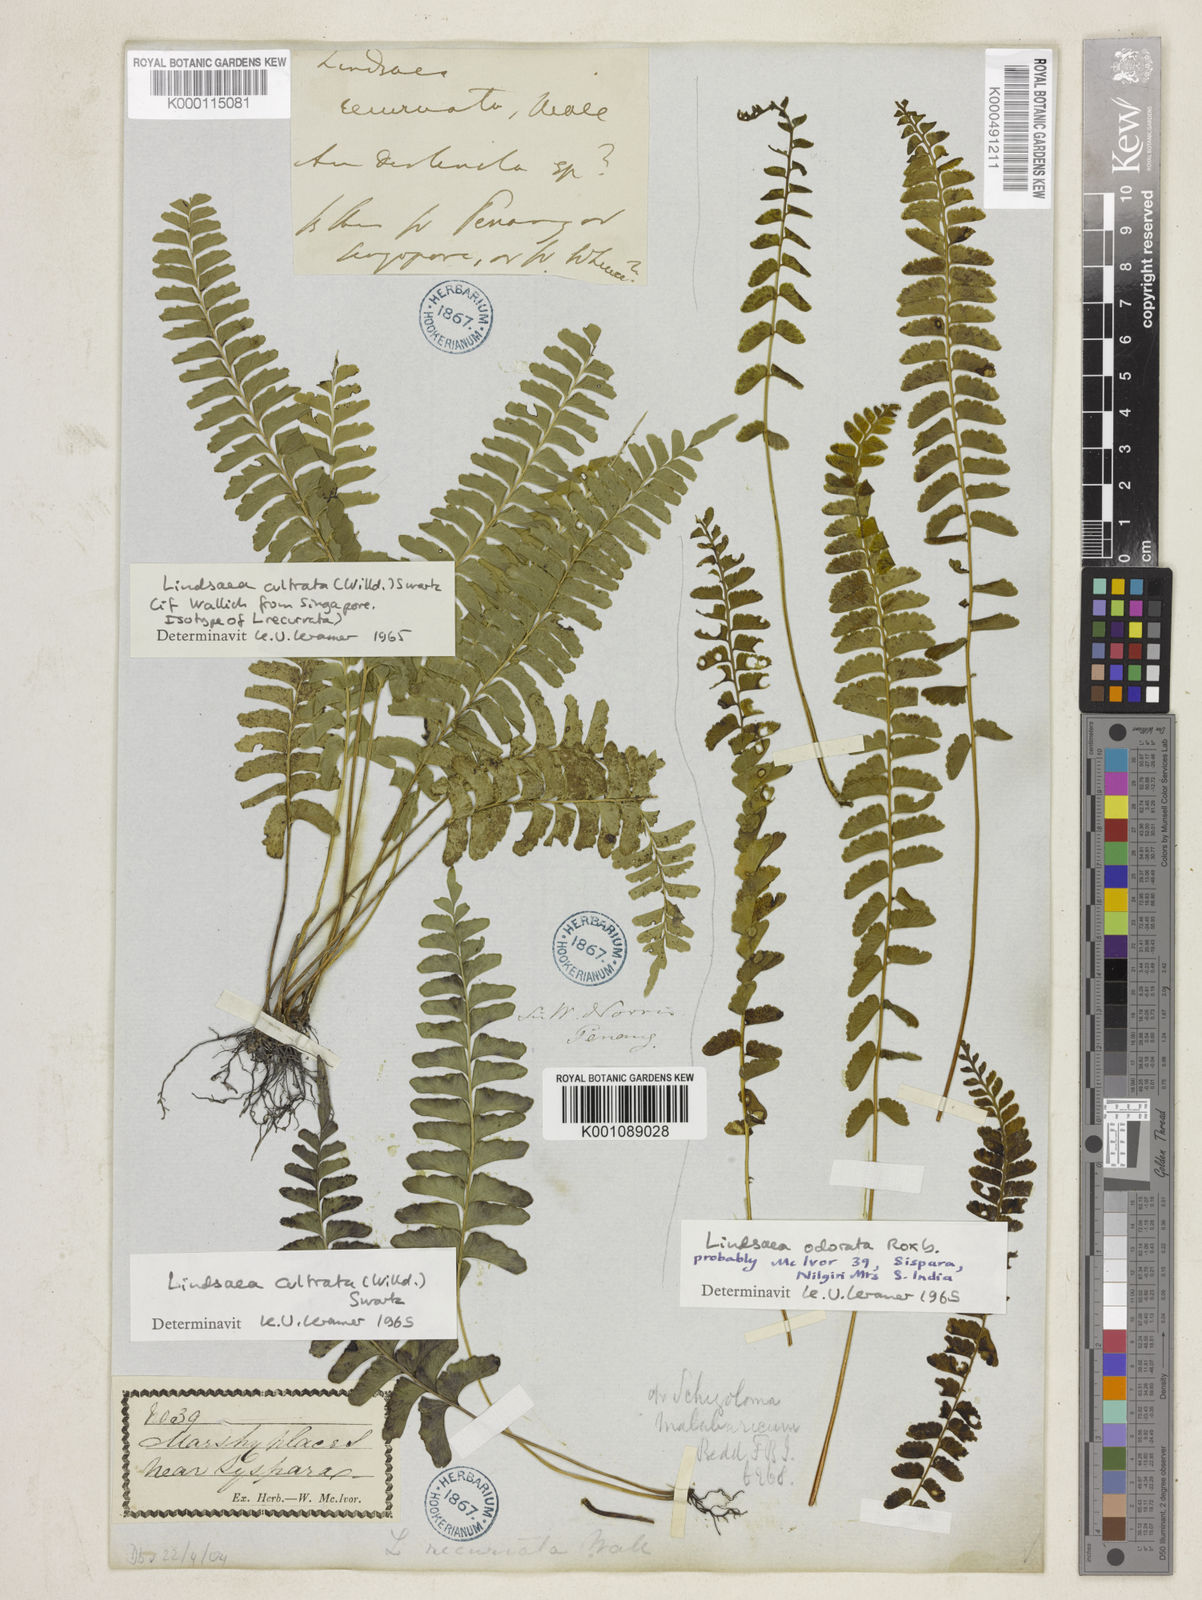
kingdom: Plantae
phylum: Tracheophyta
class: Polypodiopsida
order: Polypodiales
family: Lindsaeaceae
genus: Lindsaea
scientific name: Lindsaea cultrata
